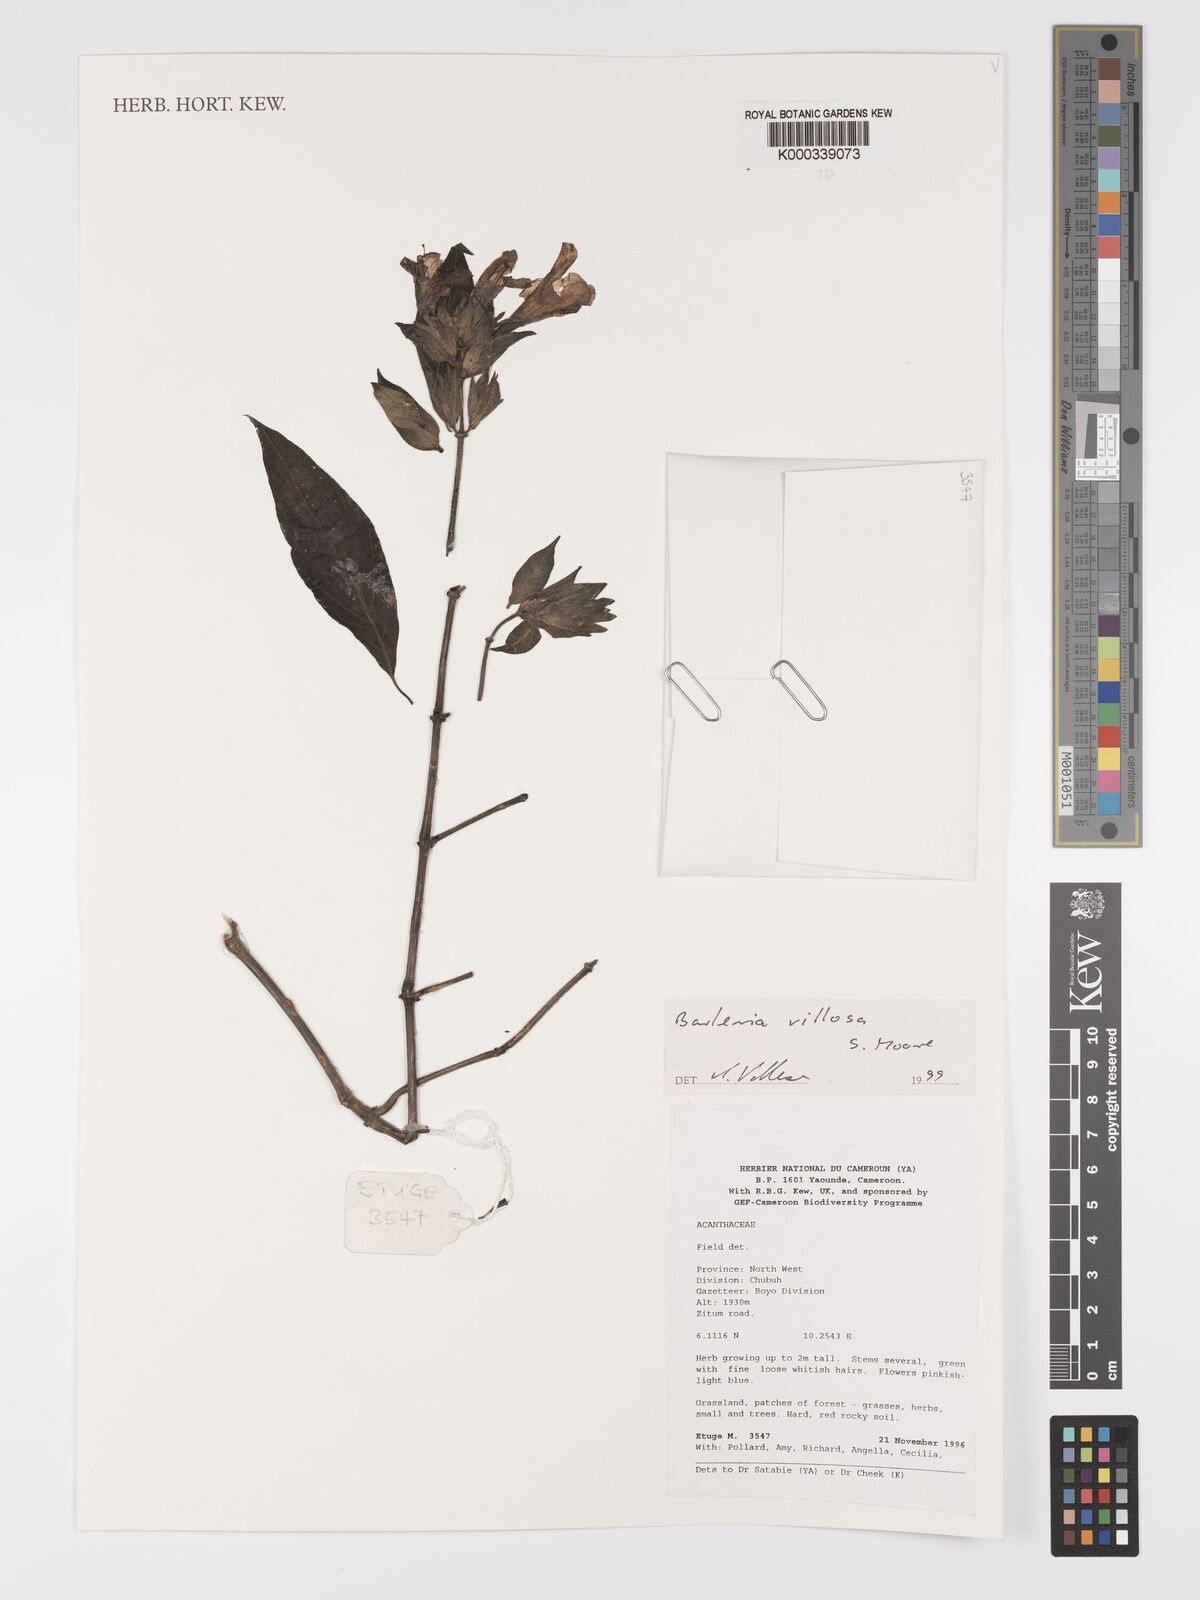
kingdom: Plantae
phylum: Tracheophyta
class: Magnoliopsida
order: Lamiales
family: Acanthaceae
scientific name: Acanthaceae
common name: Acanthaceae
